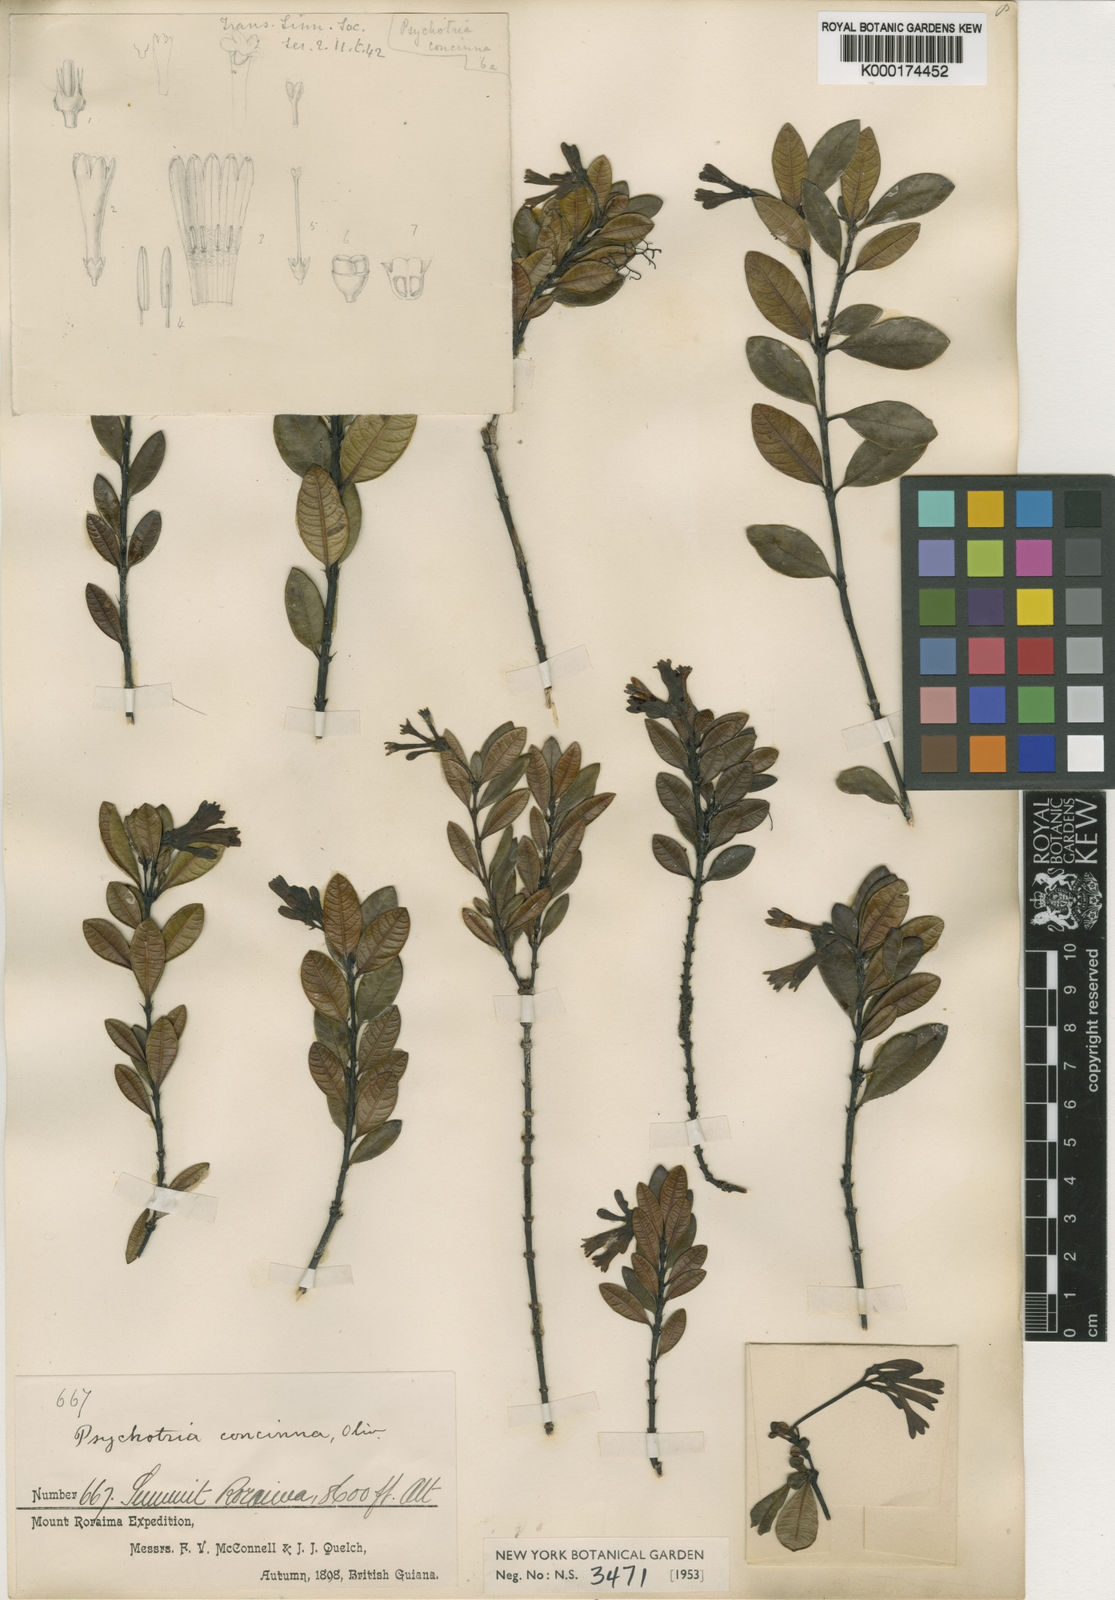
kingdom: Plantae
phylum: Tracheophyta
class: Magnoliopsida
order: Gentianales
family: Rubiaceae
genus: Palicourea
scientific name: Palicourea concinna
